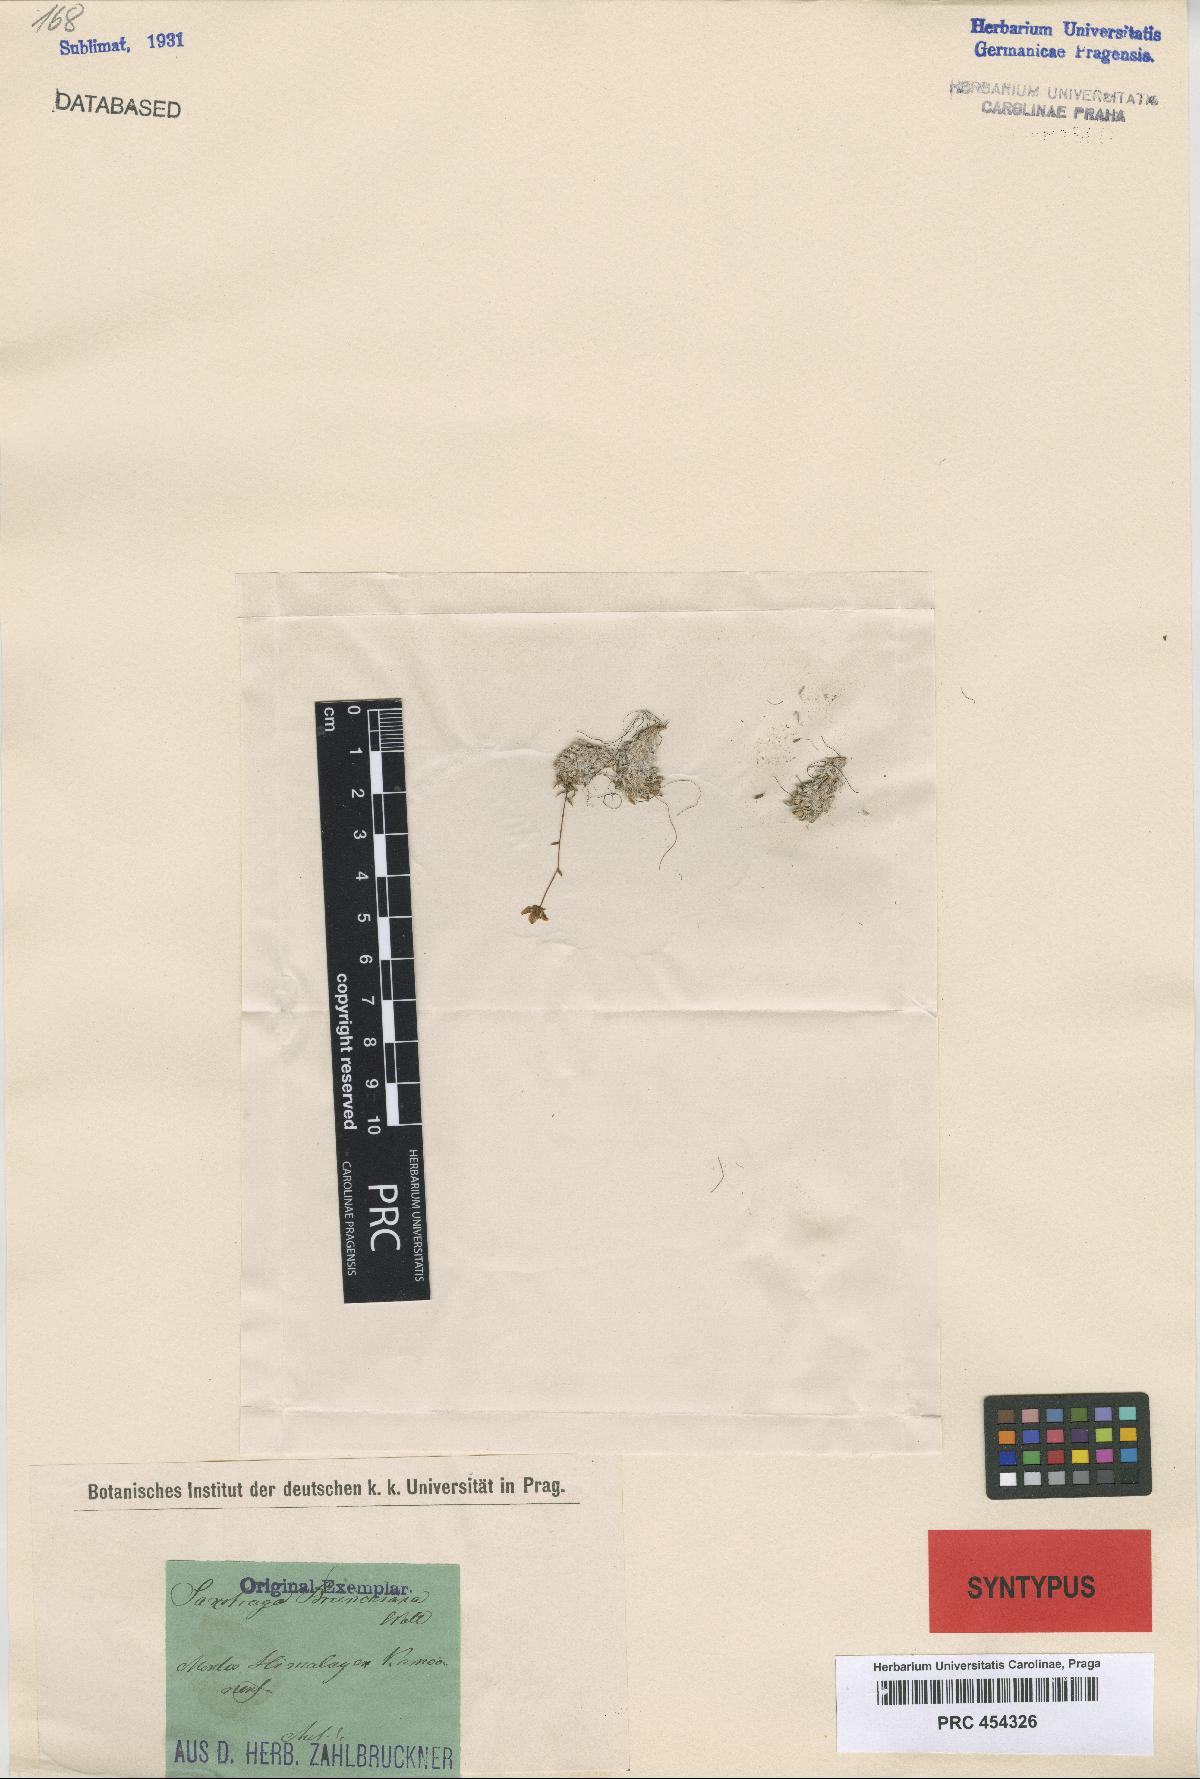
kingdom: Plantae
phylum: Tracheophyta
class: Magnoliopsida
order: Saxifragales
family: Saxifragaceae
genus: Saxifraga
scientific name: Saxifraga brunonis
